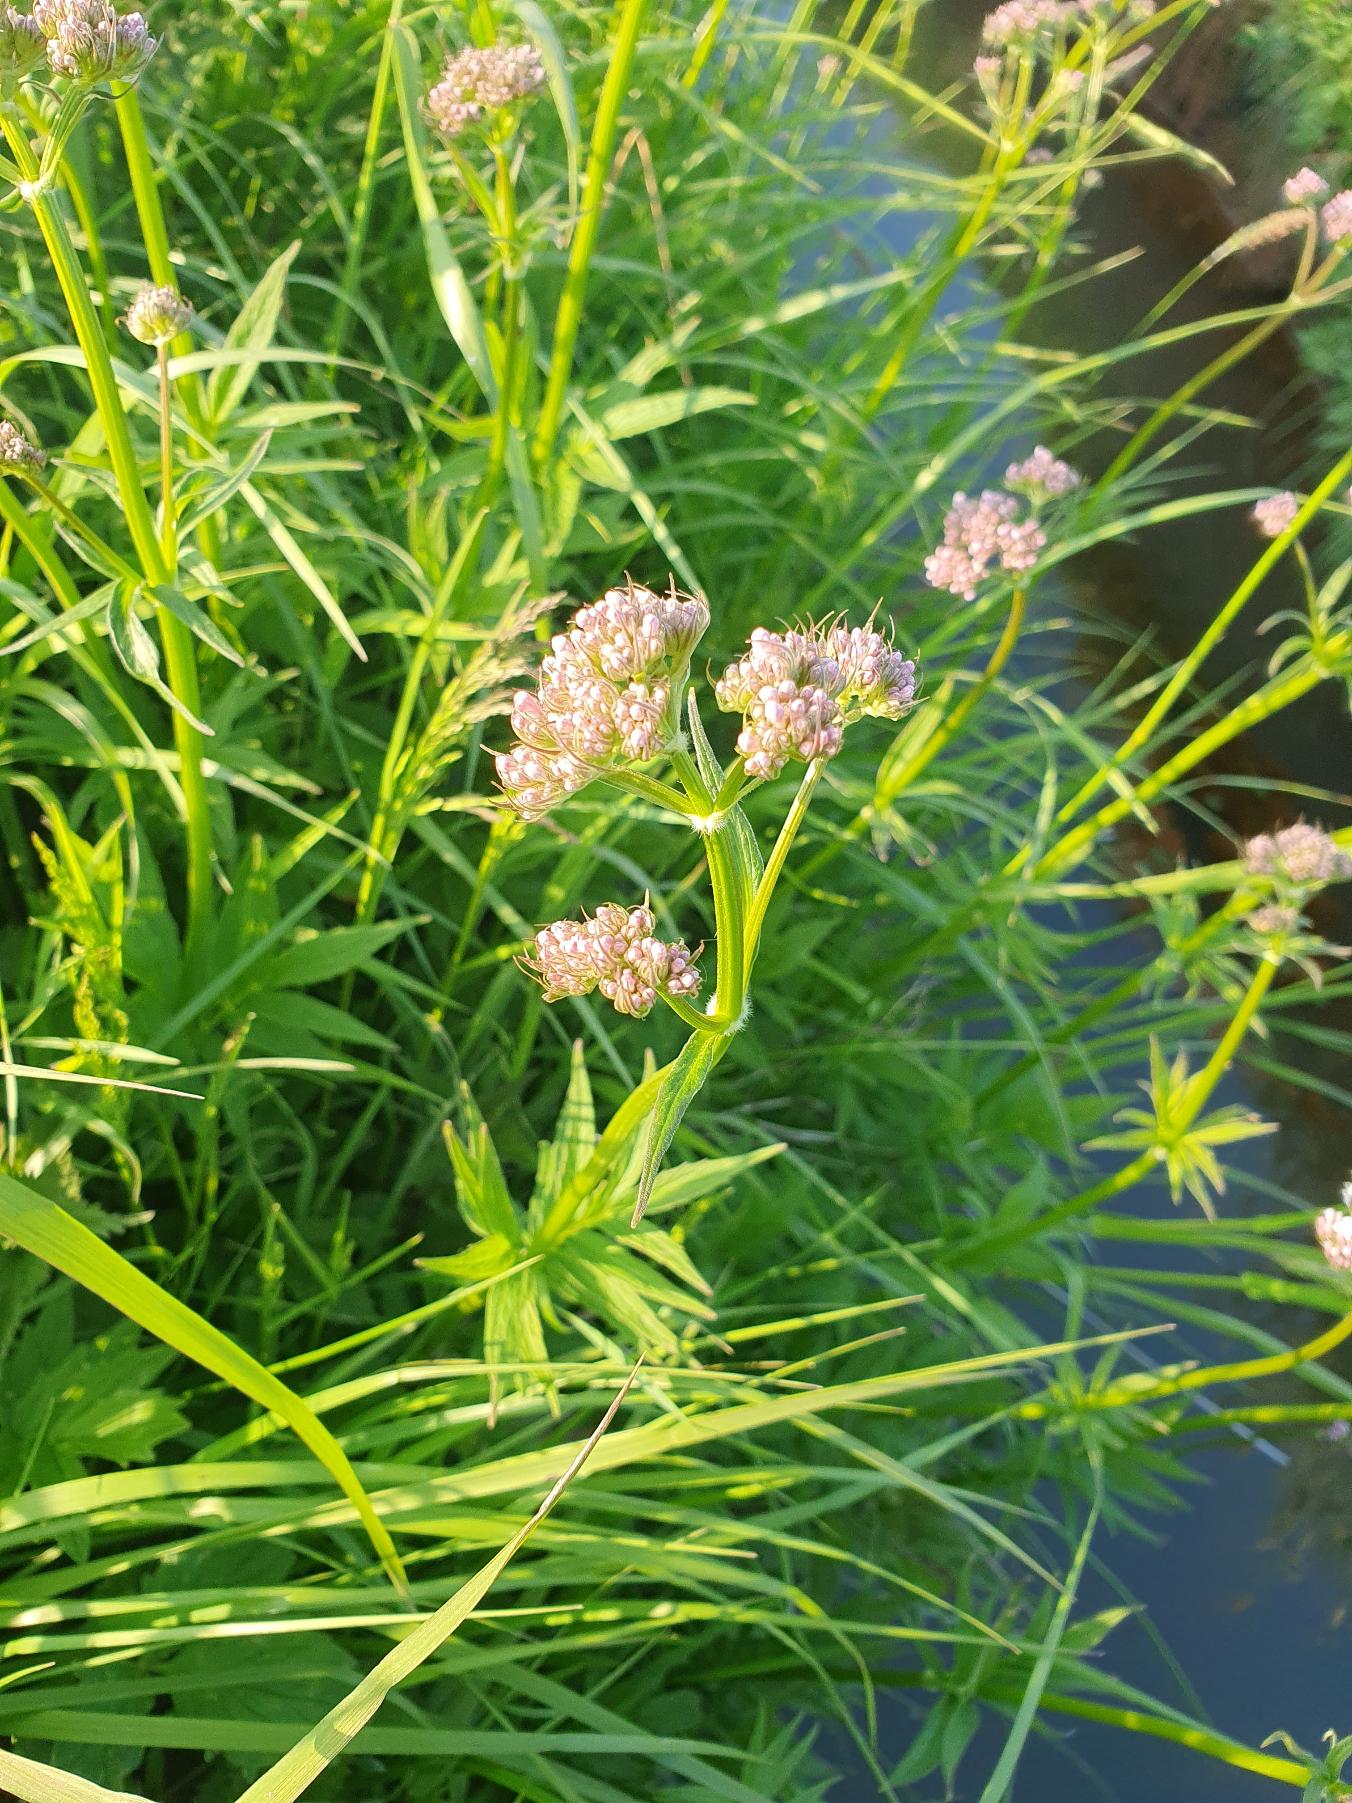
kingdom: Plantae
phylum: Tracheophyta
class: Magnoliopsida
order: Dipsacales
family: Caprifoliaceae
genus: Valeriana
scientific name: Valeriana sambucifolia
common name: Hyldebladet baldrian
